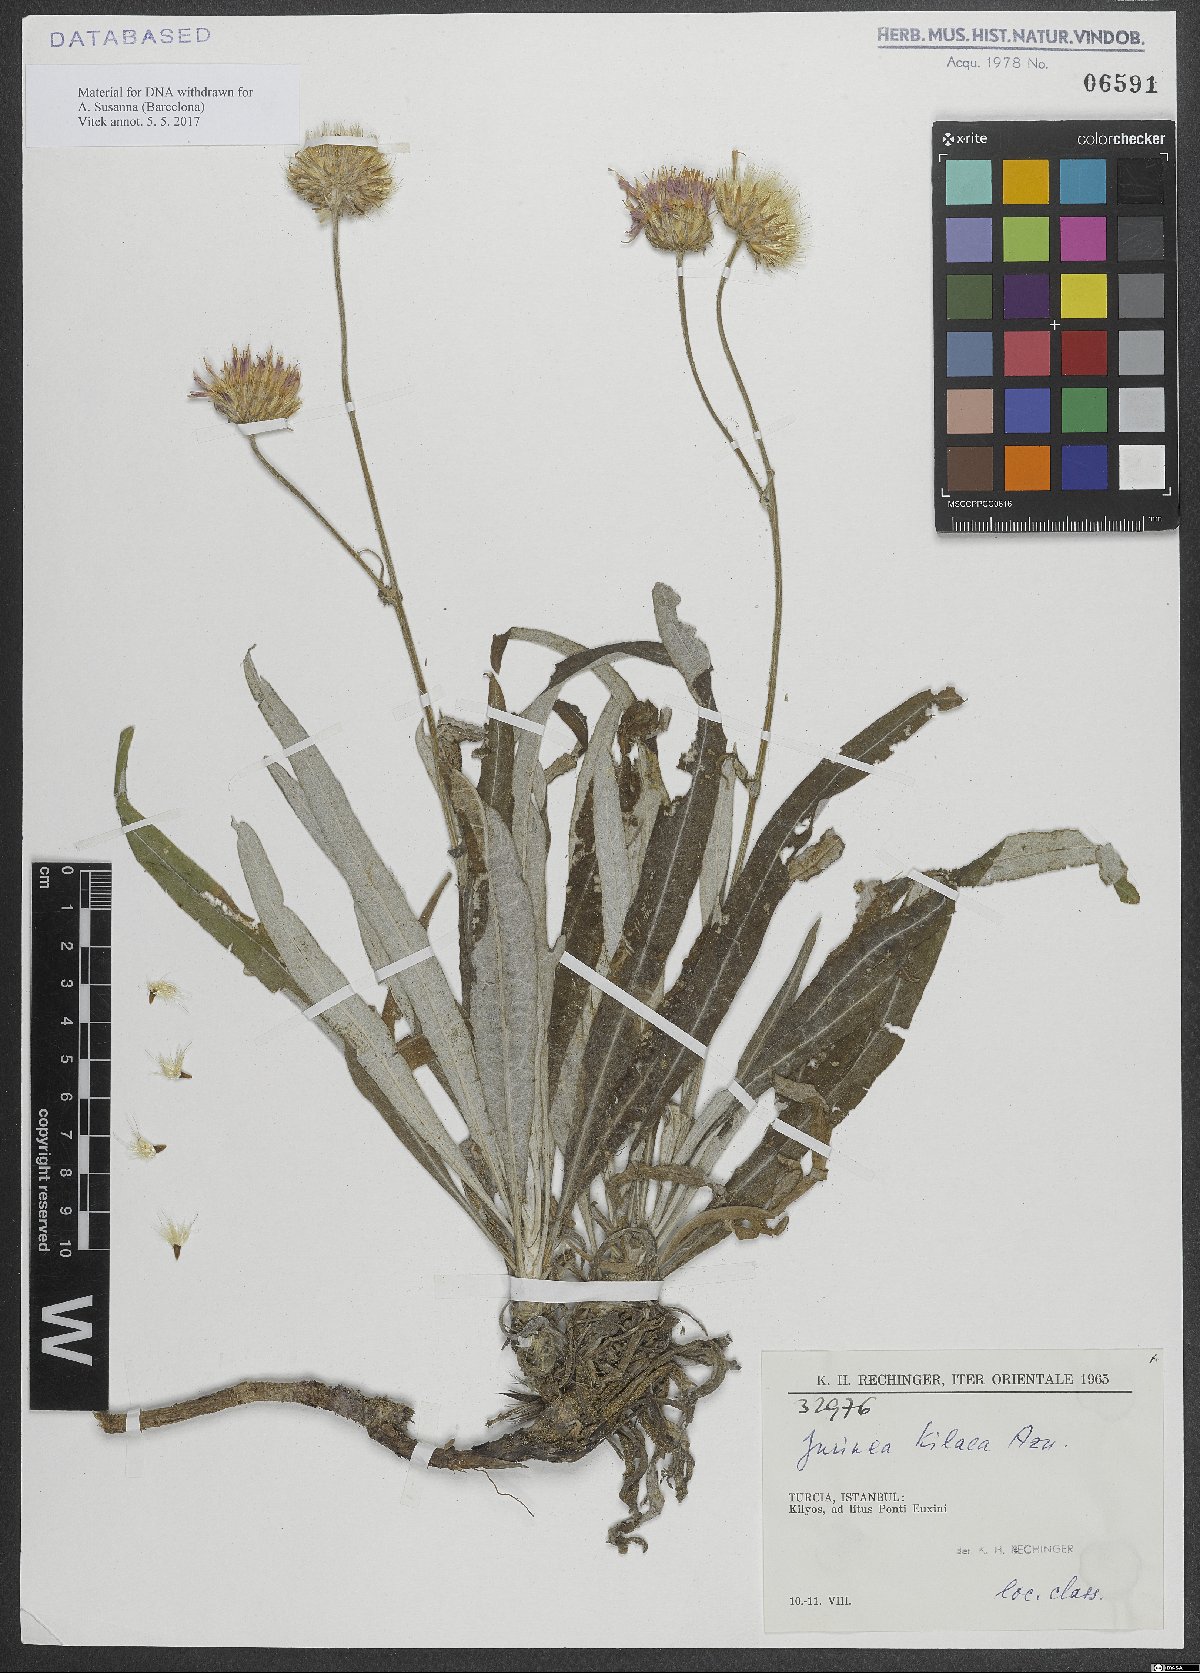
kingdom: Plantae
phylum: Tracheophyta
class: Magnoliopsida
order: Asterales
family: Asteraceae
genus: Jurinea
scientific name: Jurinea kilaea
